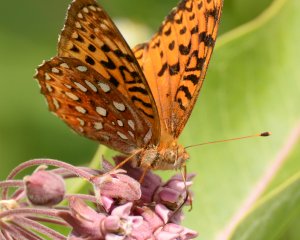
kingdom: Animalia
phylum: Arthropoda
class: Insecta
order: Lepidoptera
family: Nymphalidae
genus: Speyeria
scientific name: Speyeria aphrodite
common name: Aphrodite Fritillary
